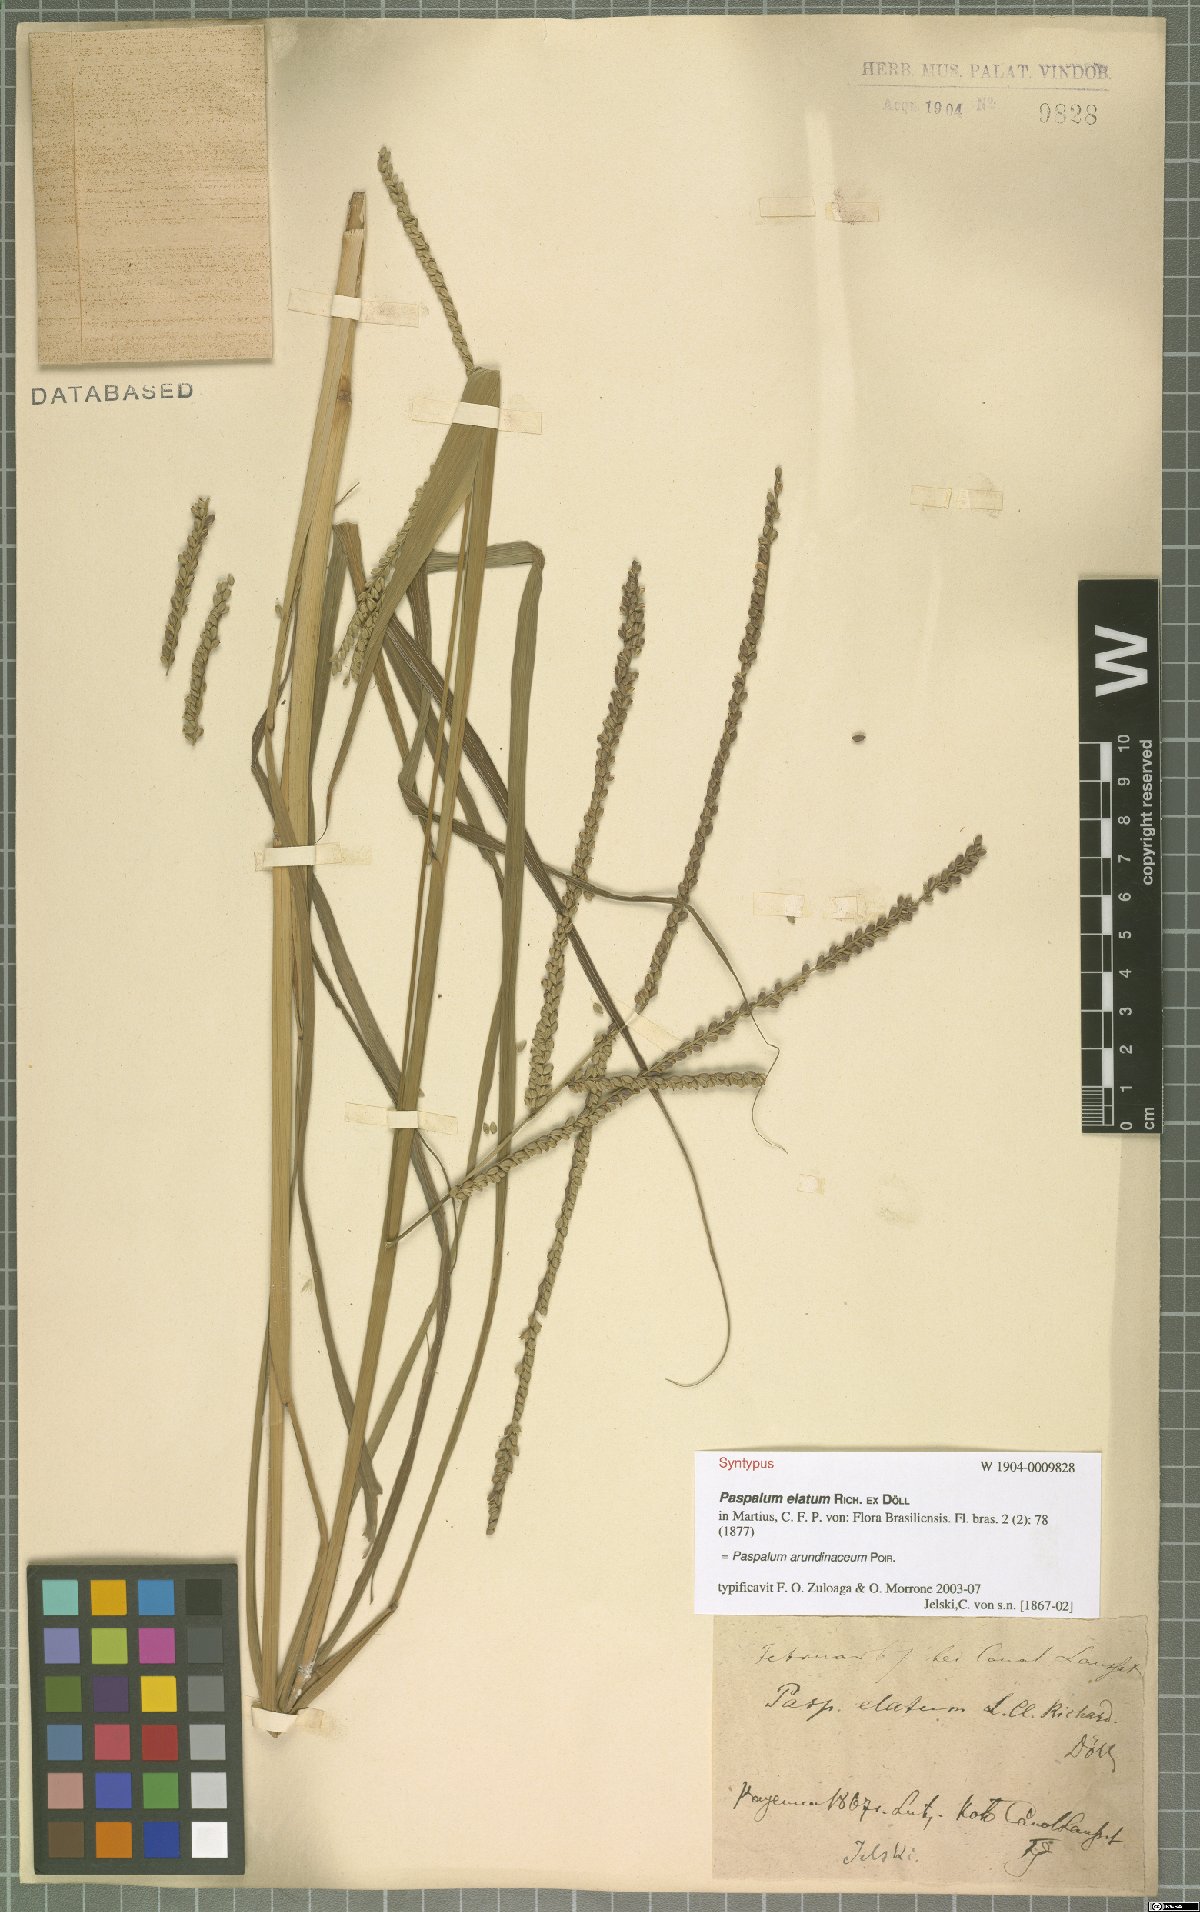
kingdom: Plantae
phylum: Tracheophyta
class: Liliopsida
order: Poales
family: Poaceae
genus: Paspalum
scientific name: Paspalum arundinaceum
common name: Thick ditch crowngrass
